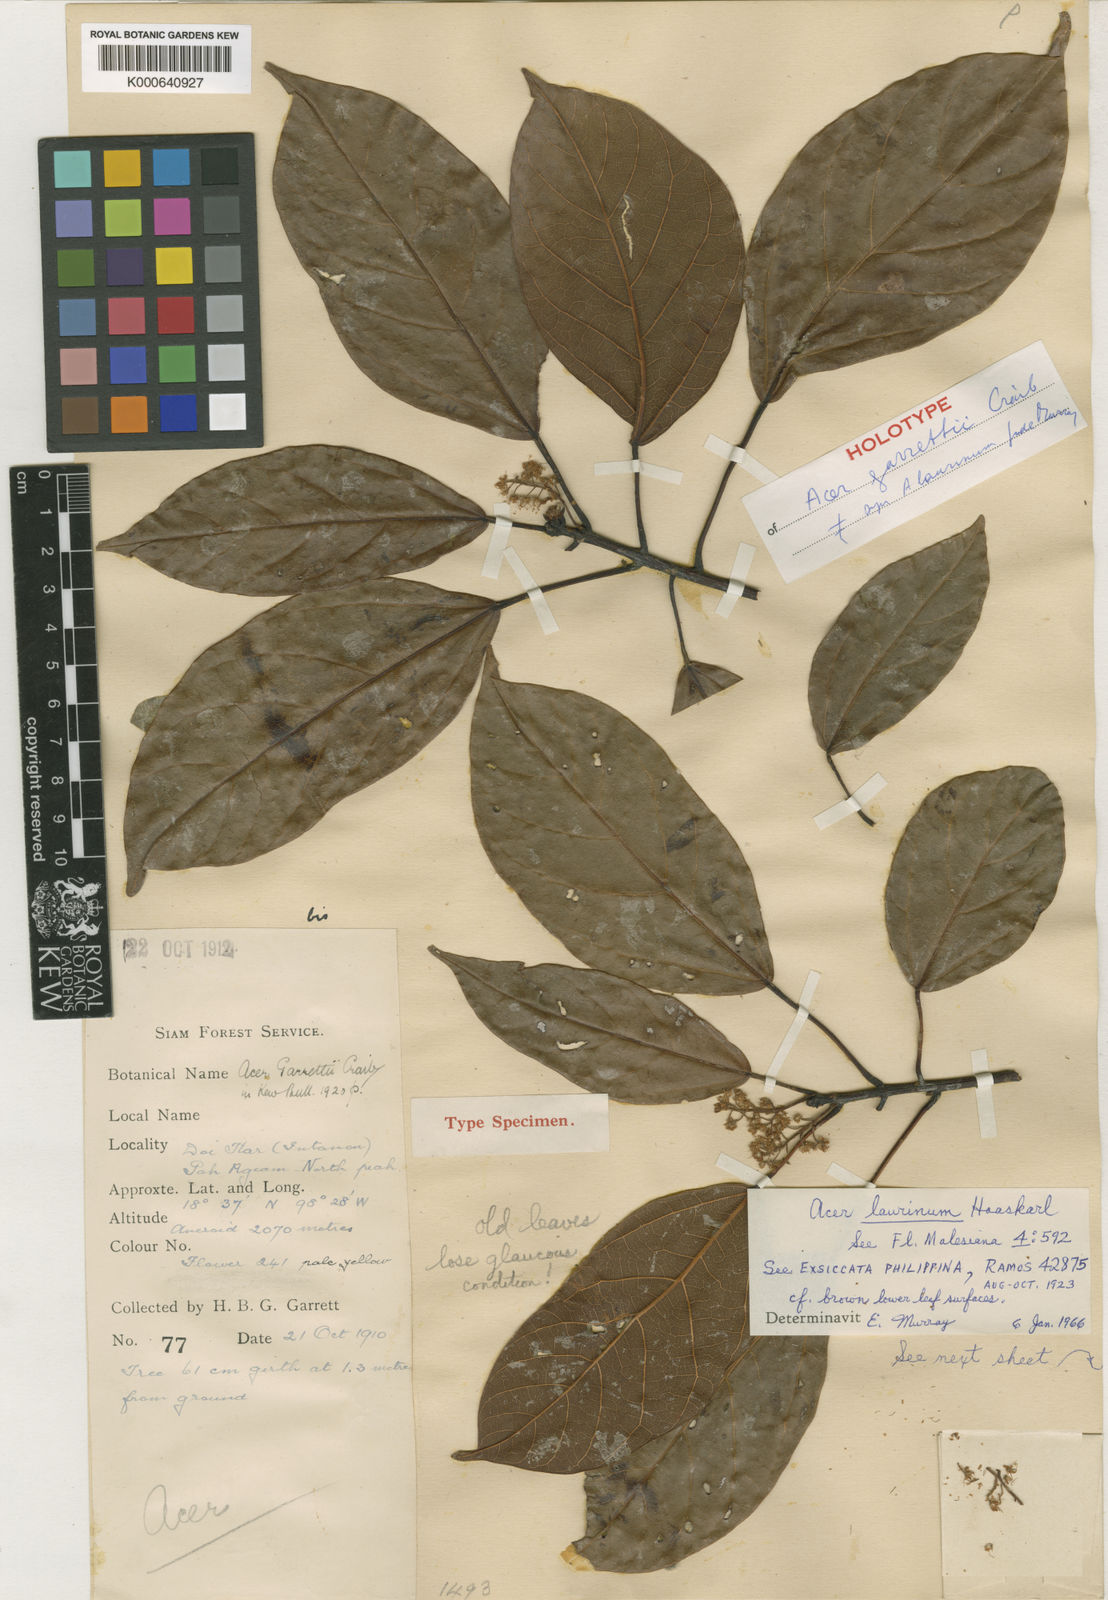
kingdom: Plantae
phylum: Tracheophyta
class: Magnoliopsida
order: Sapindales
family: Sapindaceae
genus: Acer
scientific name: Acer laurinum
